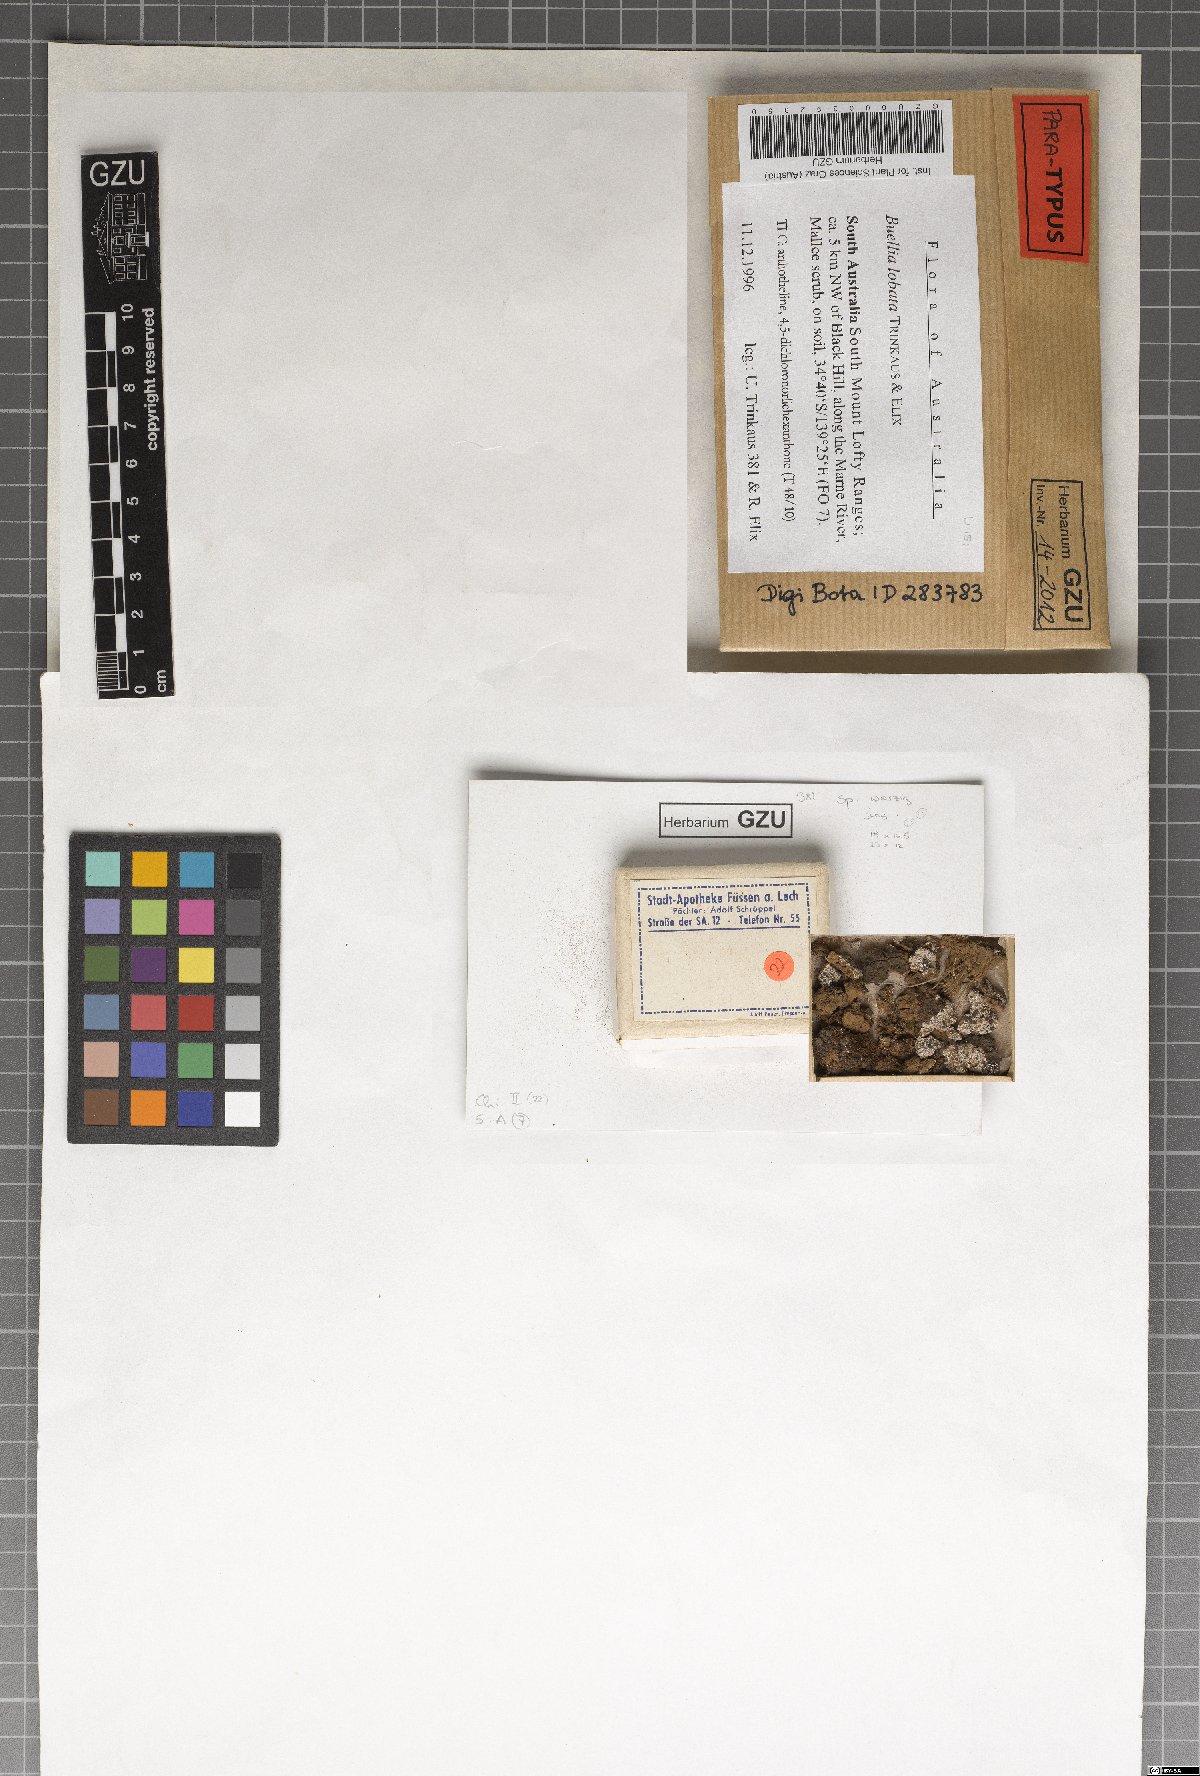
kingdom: Fungi
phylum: Ascomycota
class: Lecanoromycetes
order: Caliciales
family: Caliciaceae
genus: Buellia
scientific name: Buellia lobata
